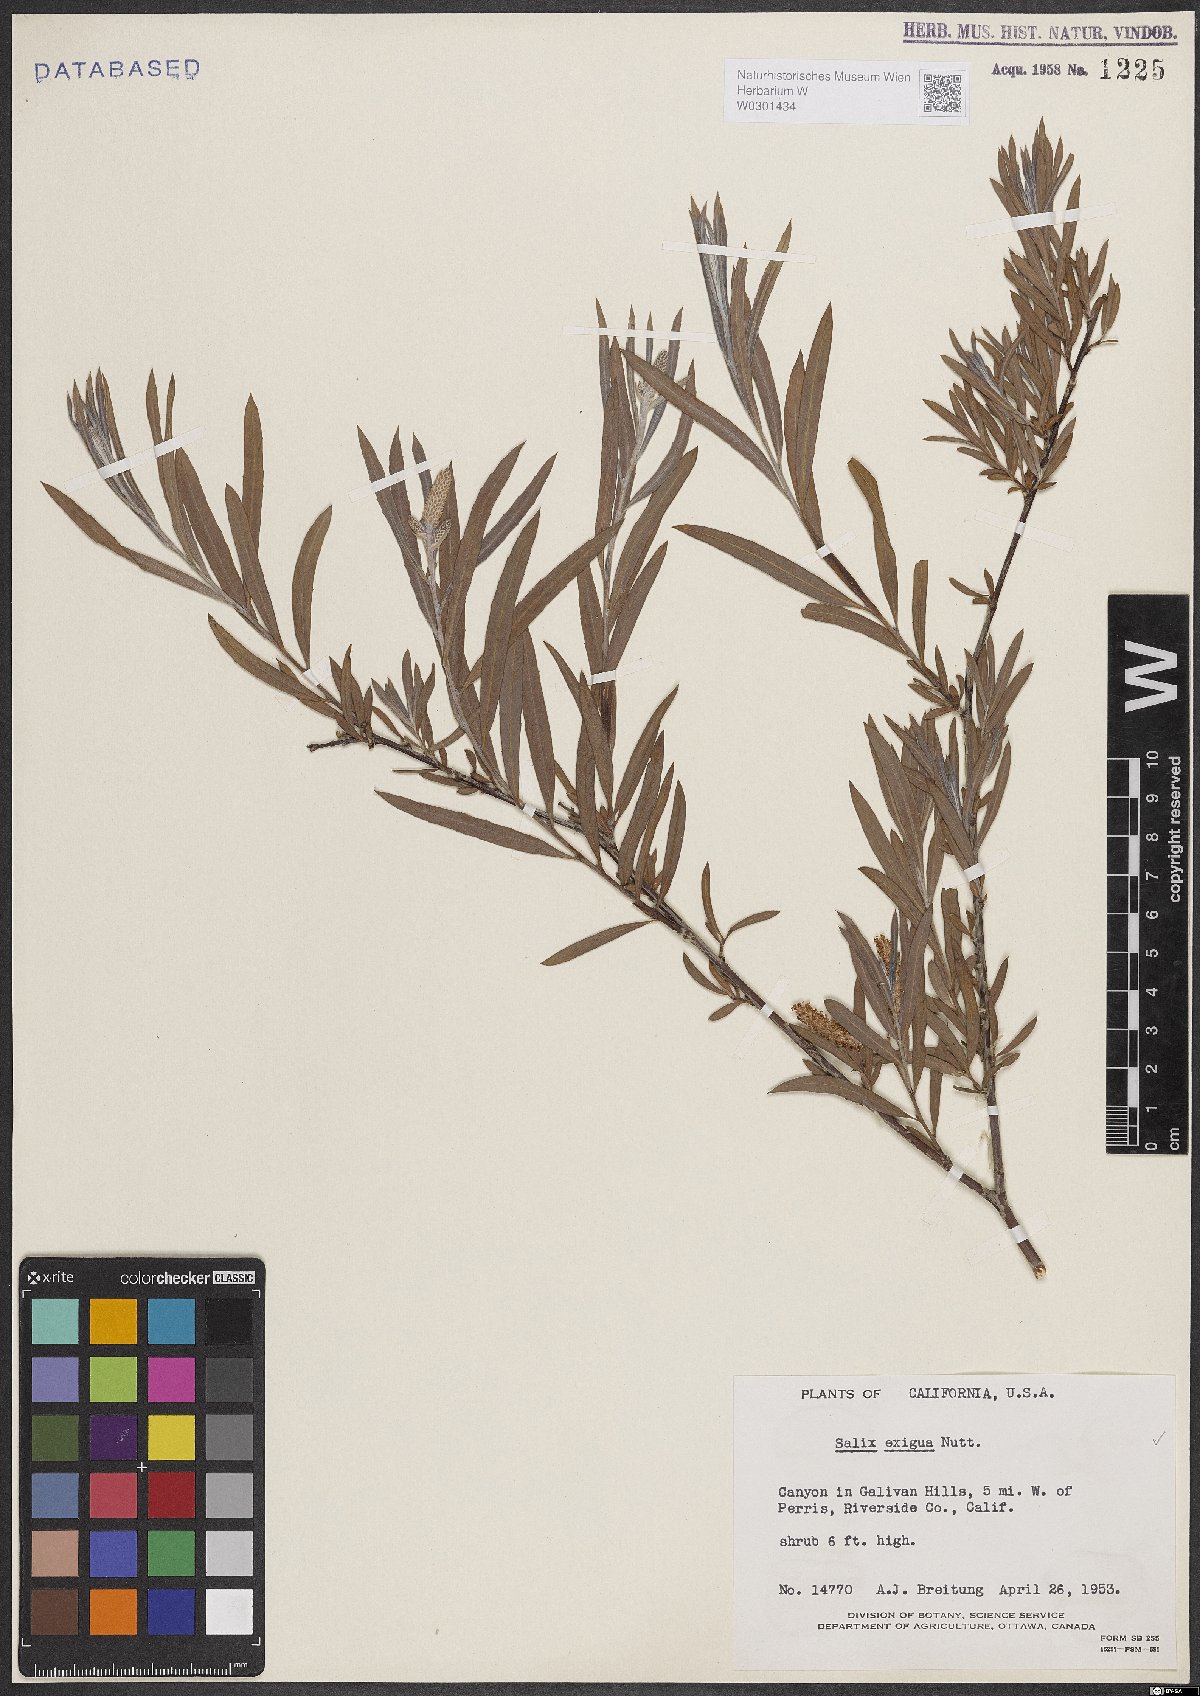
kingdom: Plantae
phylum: Tracheophyta
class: Magnoliopsida
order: Malpighiales
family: Salicaceae
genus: Salix
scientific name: Salix exigua
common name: Coyote willow
